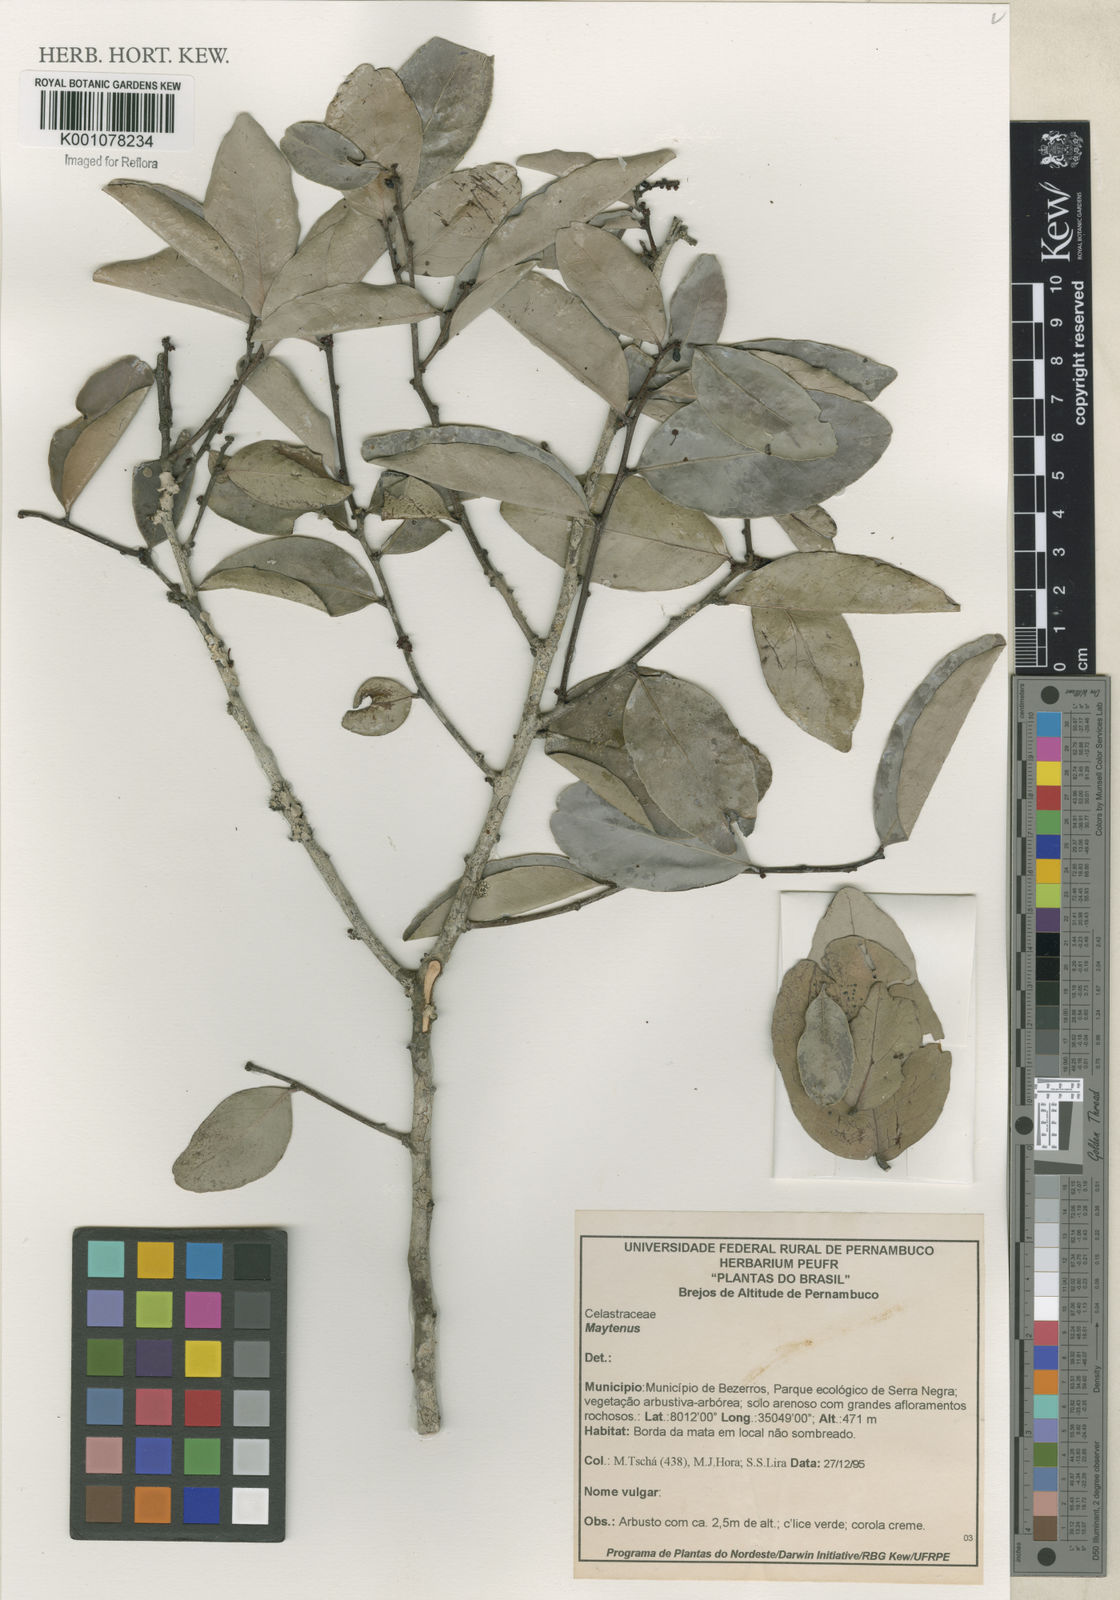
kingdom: Plantae
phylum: Tracheophyta
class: Magnoliopsida
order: Celastrales
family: Celastraceae
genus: Maytenus
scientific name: Maytenus
